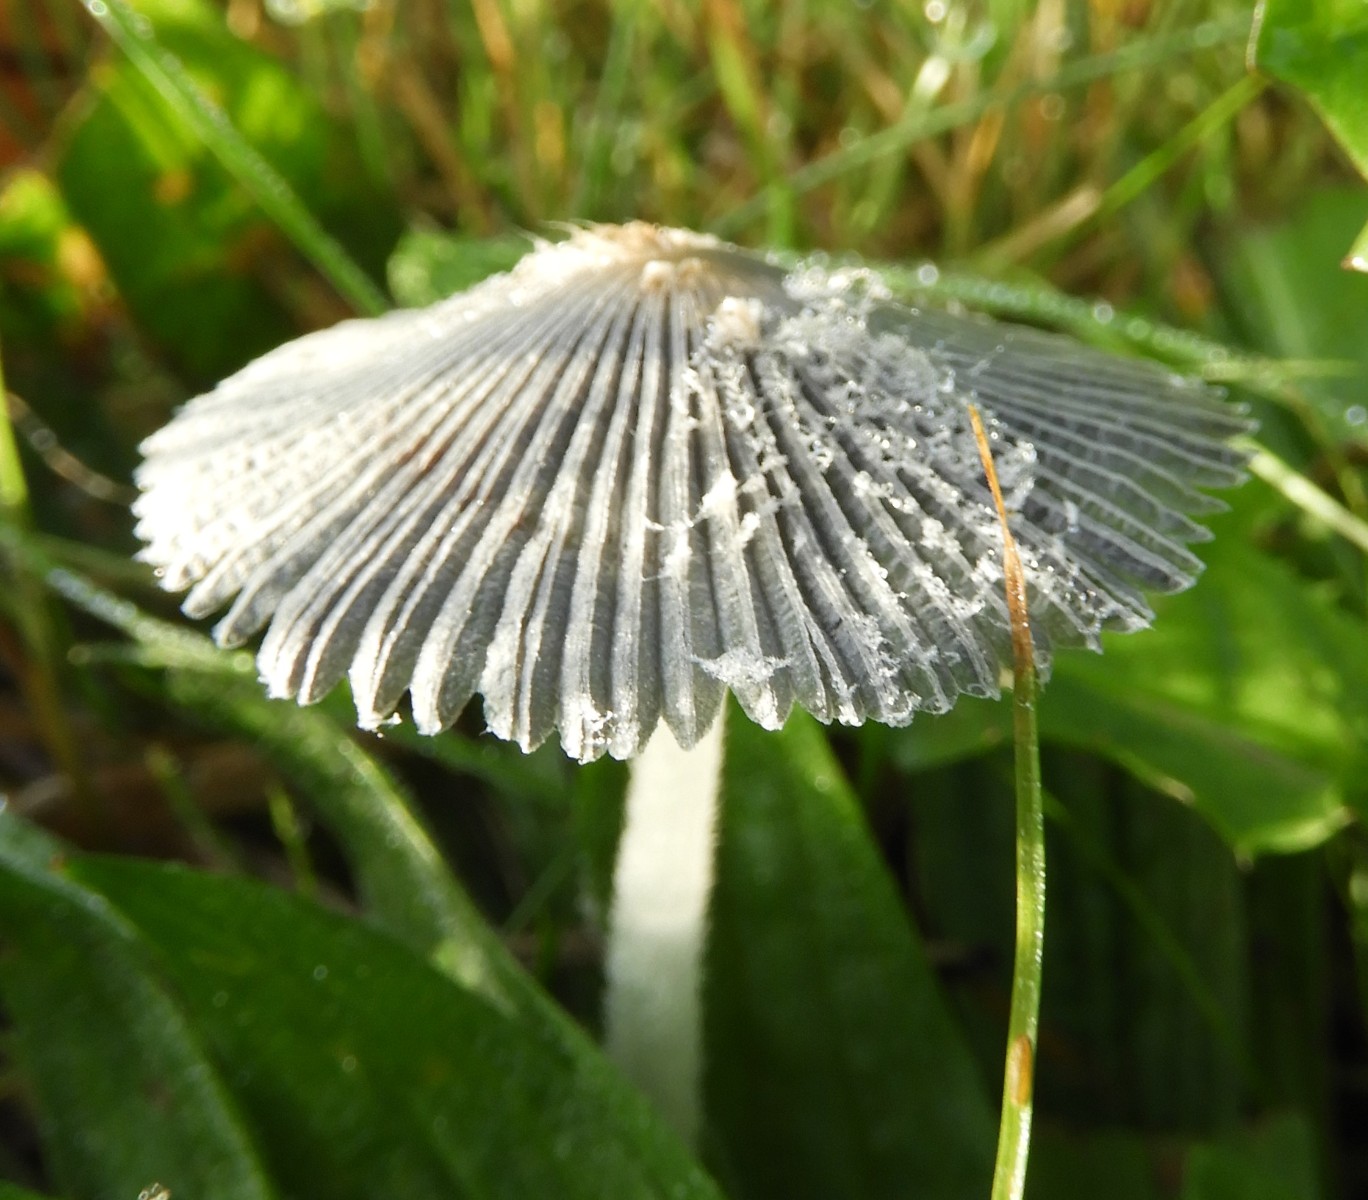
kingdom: Fungi
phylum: Basidiomycota
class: Agaricomycetes
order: Agaricales
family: Psathyrellaceae
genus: Coprinopsis
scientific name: Coprinopsis lagopus
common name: dunstokket blækhat
